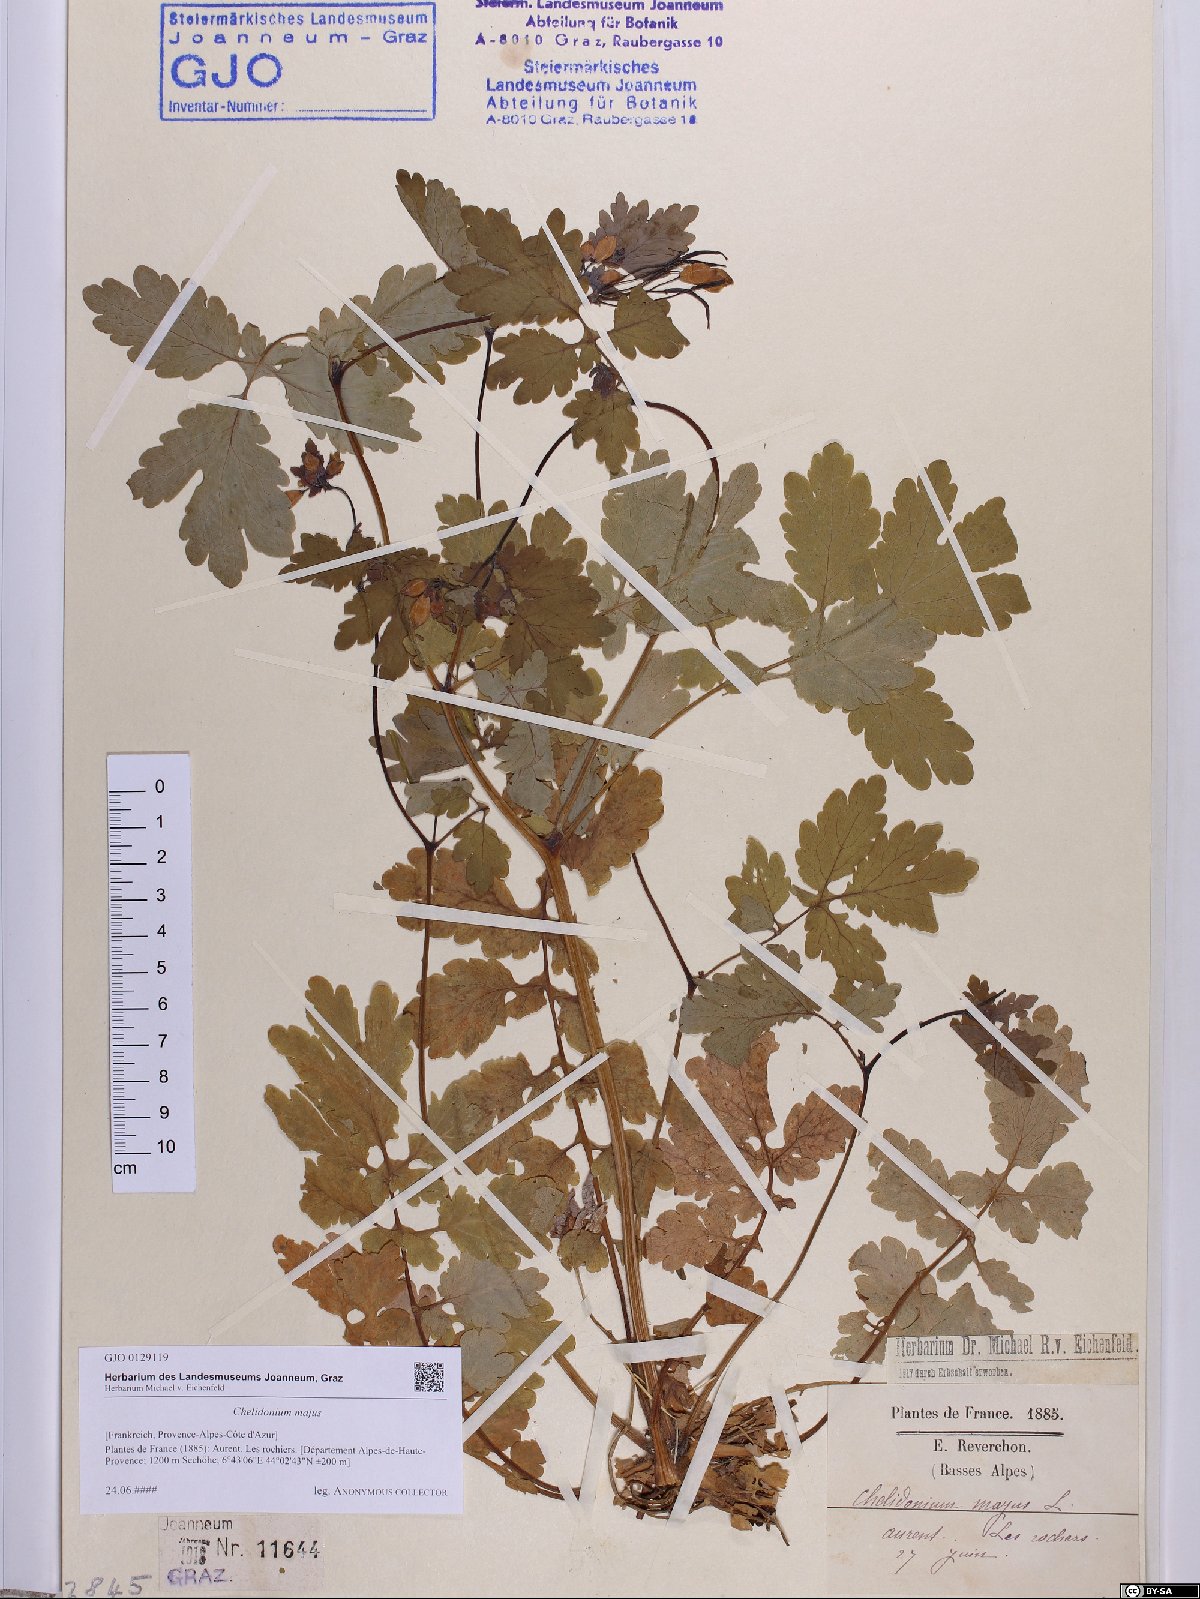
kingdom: Plantae
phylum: Tracheophyta
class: Magnoliopsida
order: Ranunculales
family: Papaveraceae
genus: Chelidonium
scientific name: Chelidonium majus
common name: Greater celandine
